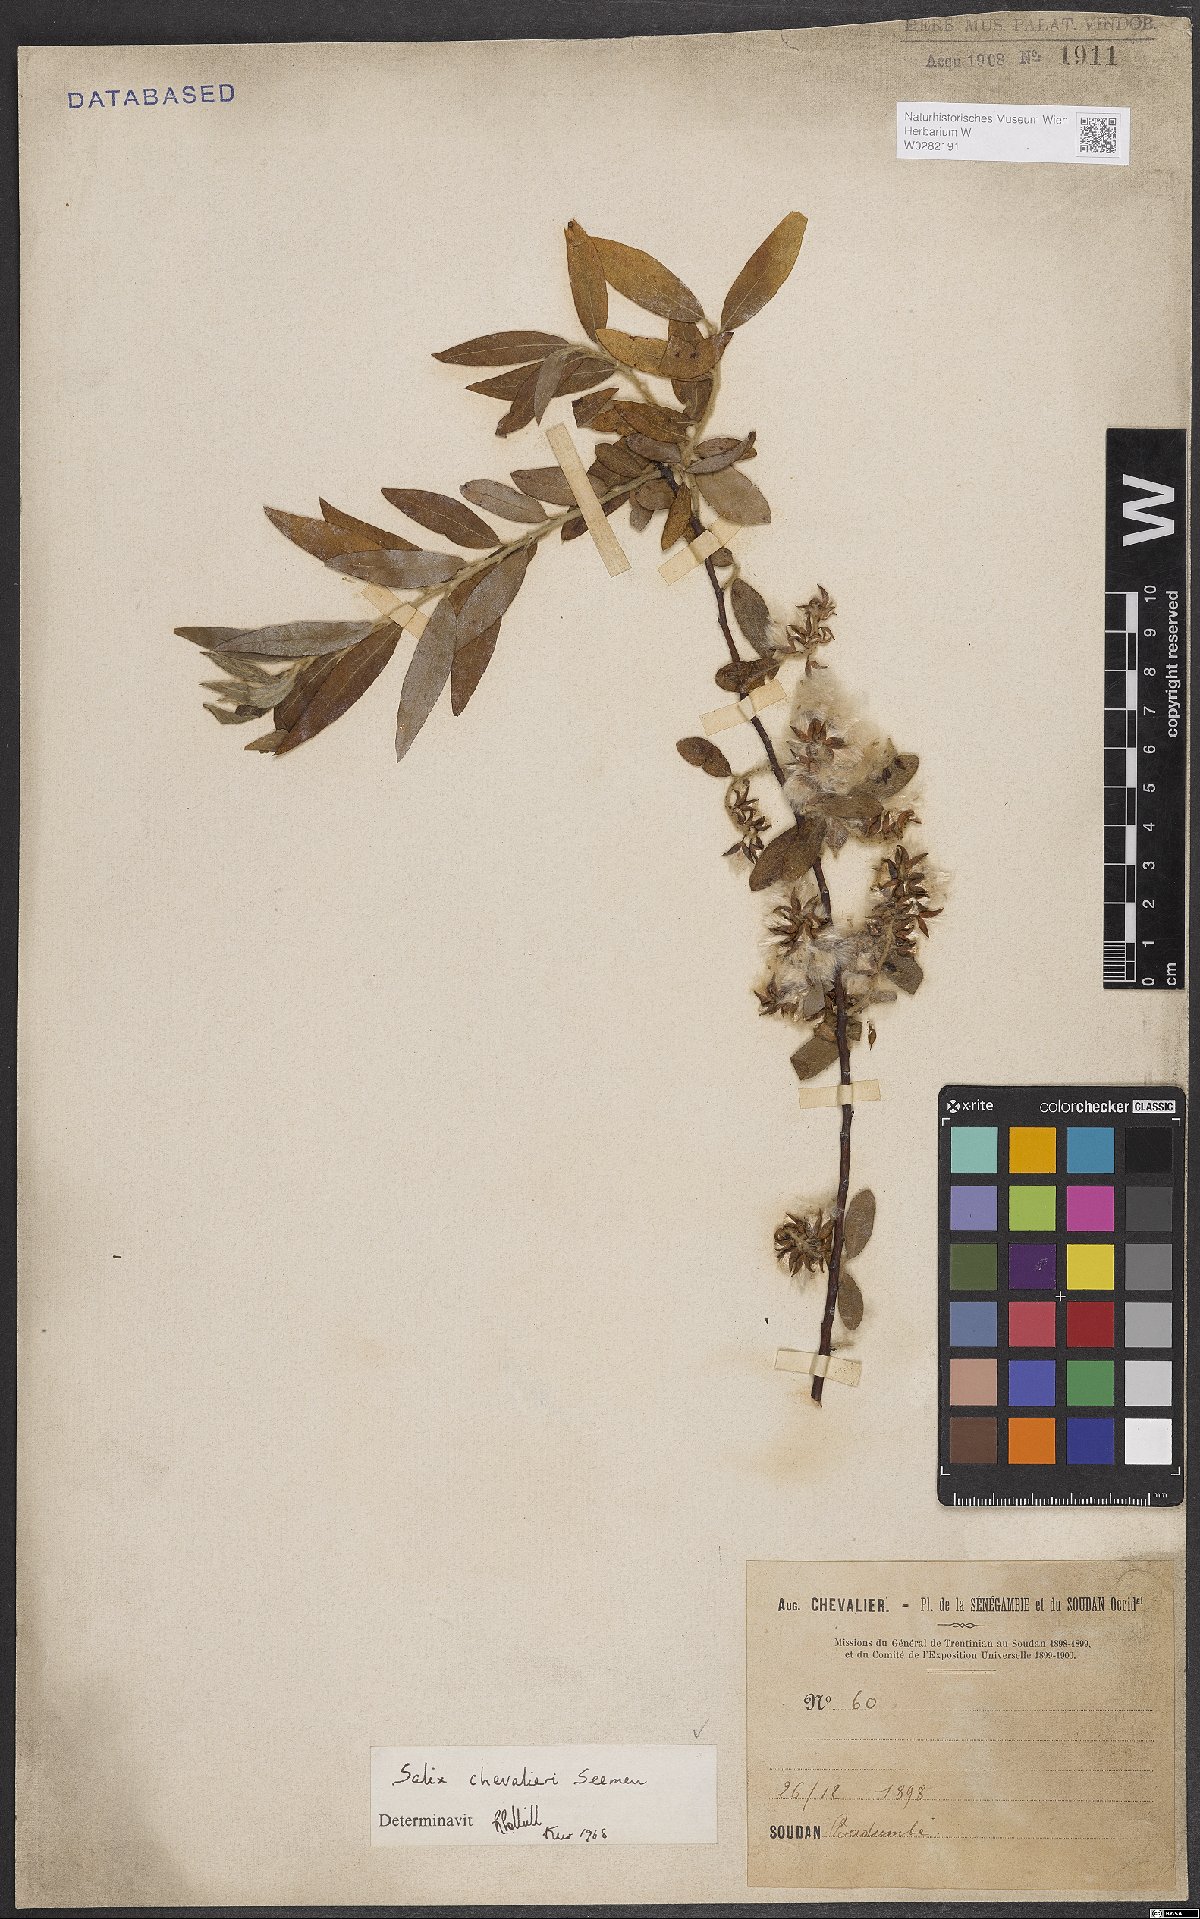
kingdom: Plantae
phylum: Tracheophyta
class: Magnoliopsida
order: Malpighiales
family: Salicaceae
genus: Salix
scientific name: Salix chevalieri
